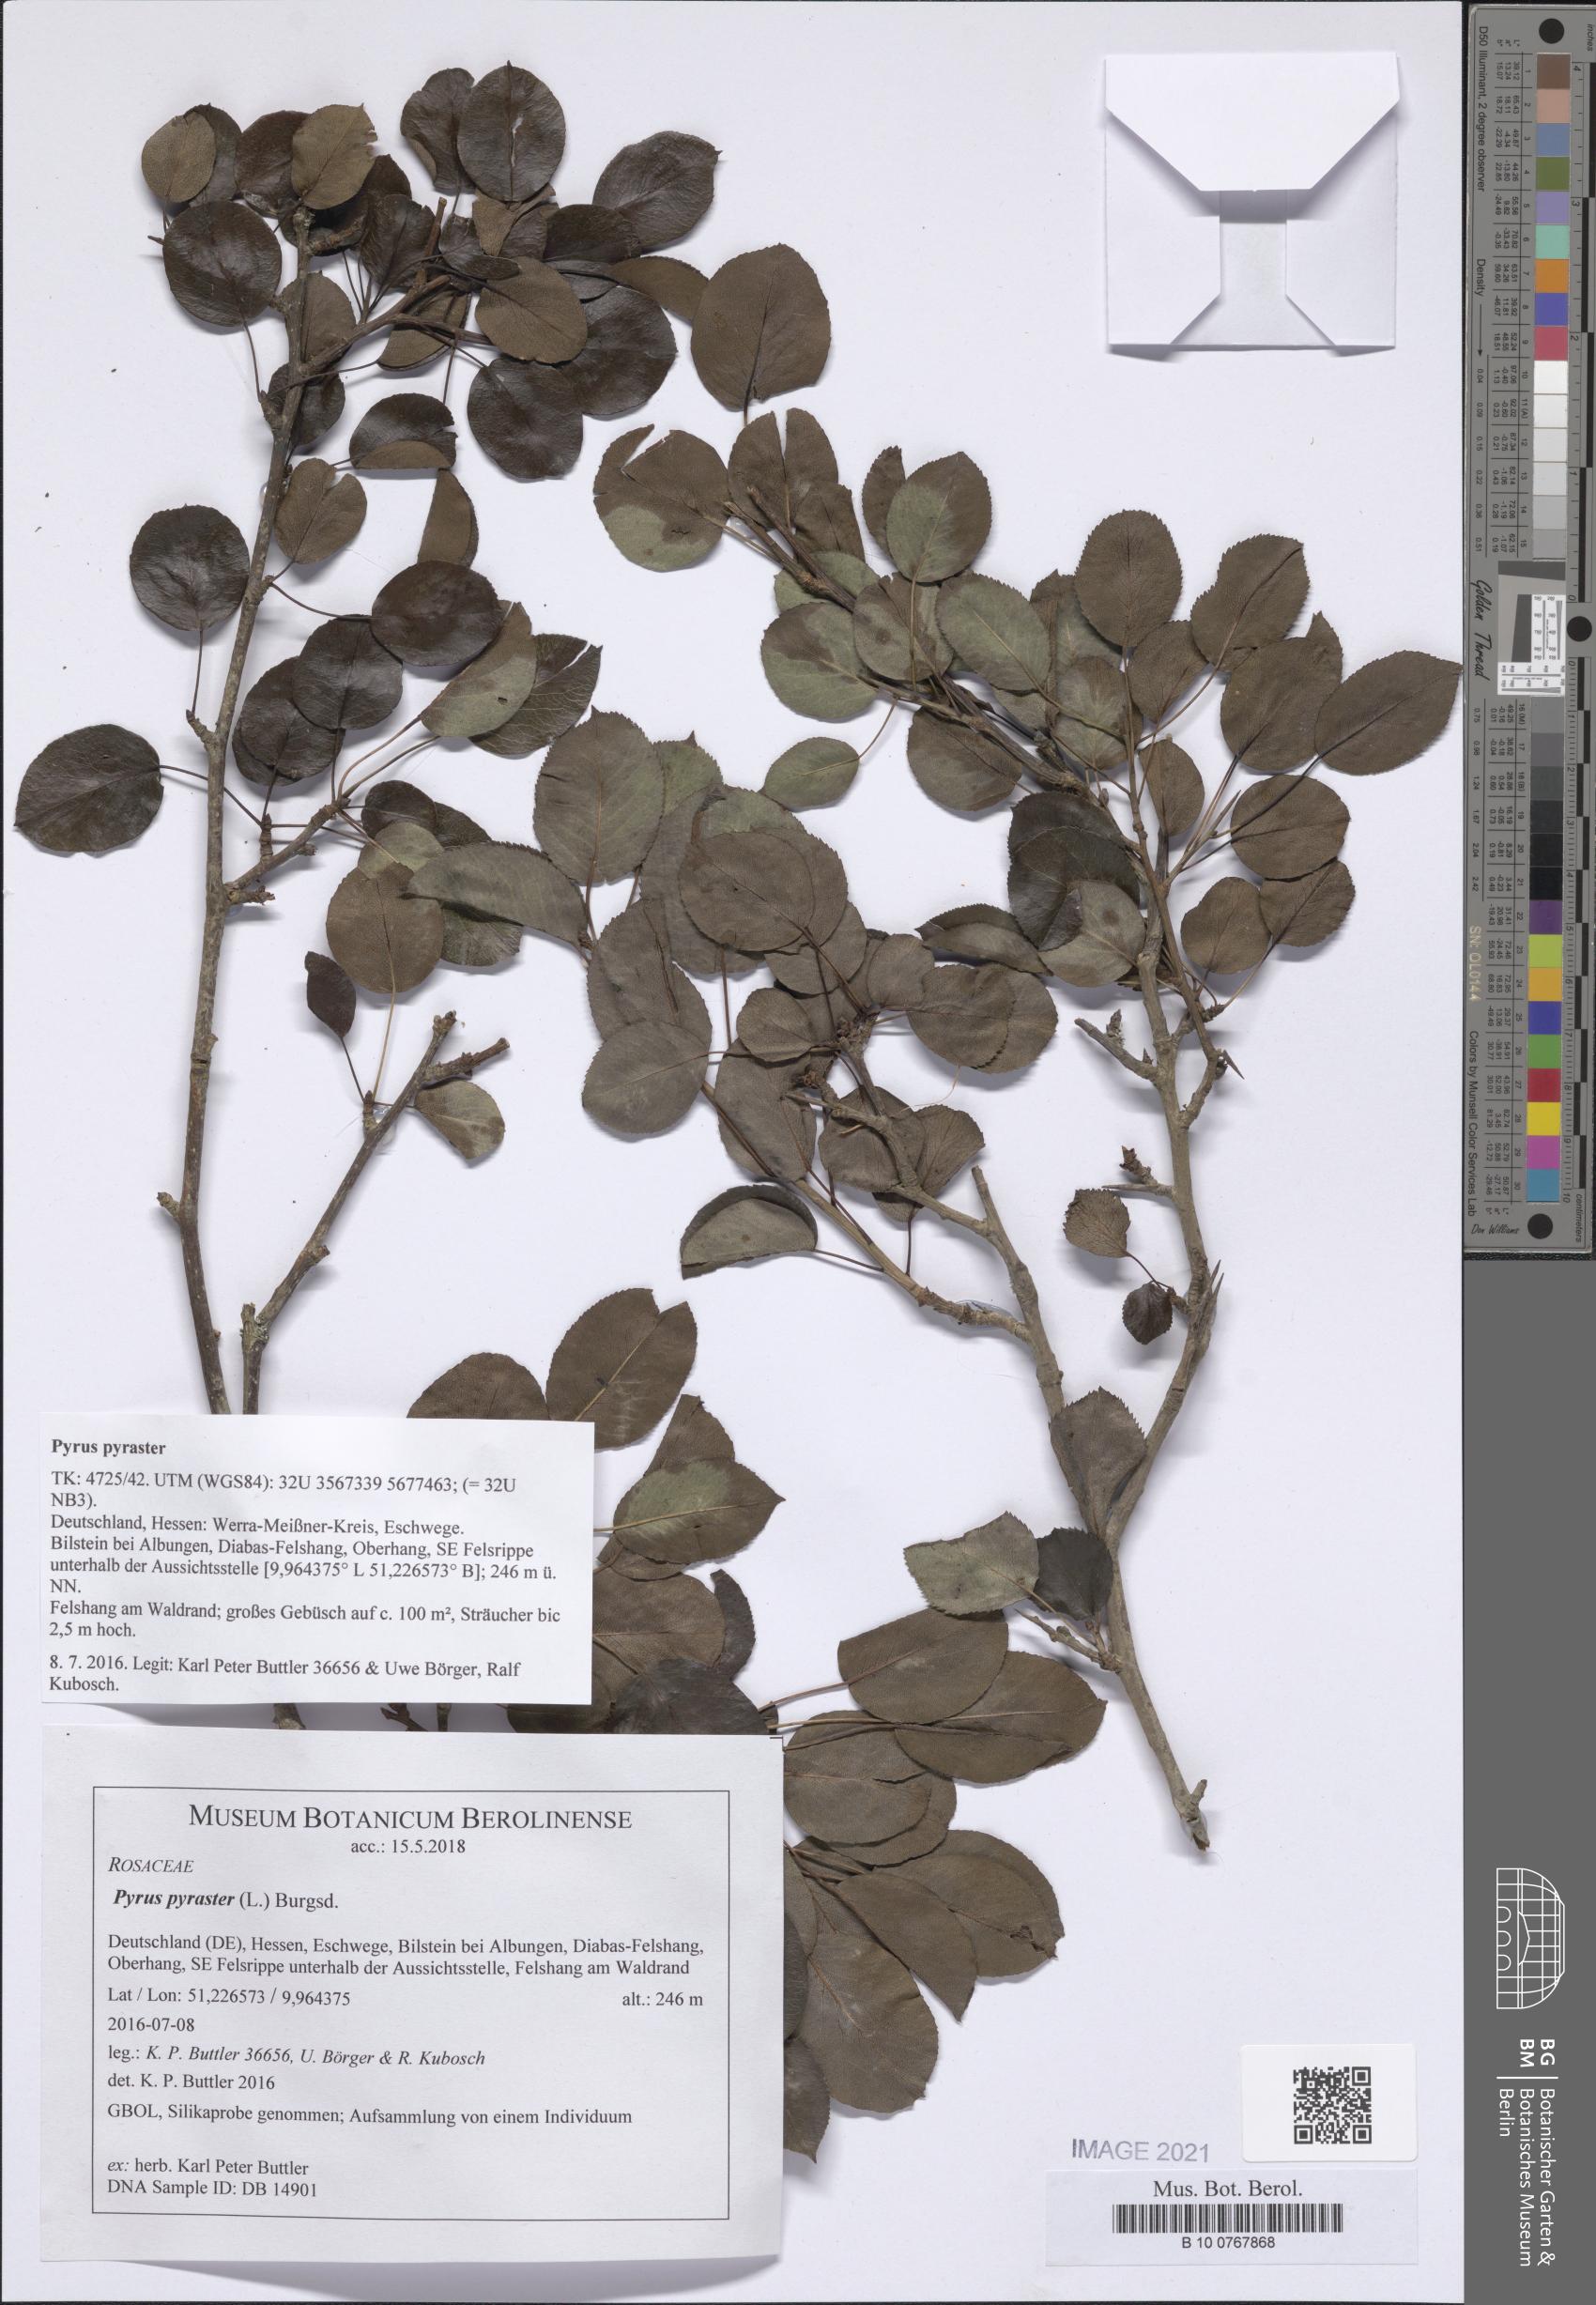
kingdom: Plantae
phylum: Tracheophyta
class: Magnoliopsida
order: Rosales
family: Rosaceae
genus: Pyrus
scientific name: Pyrus pyraster
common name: Wild pear
